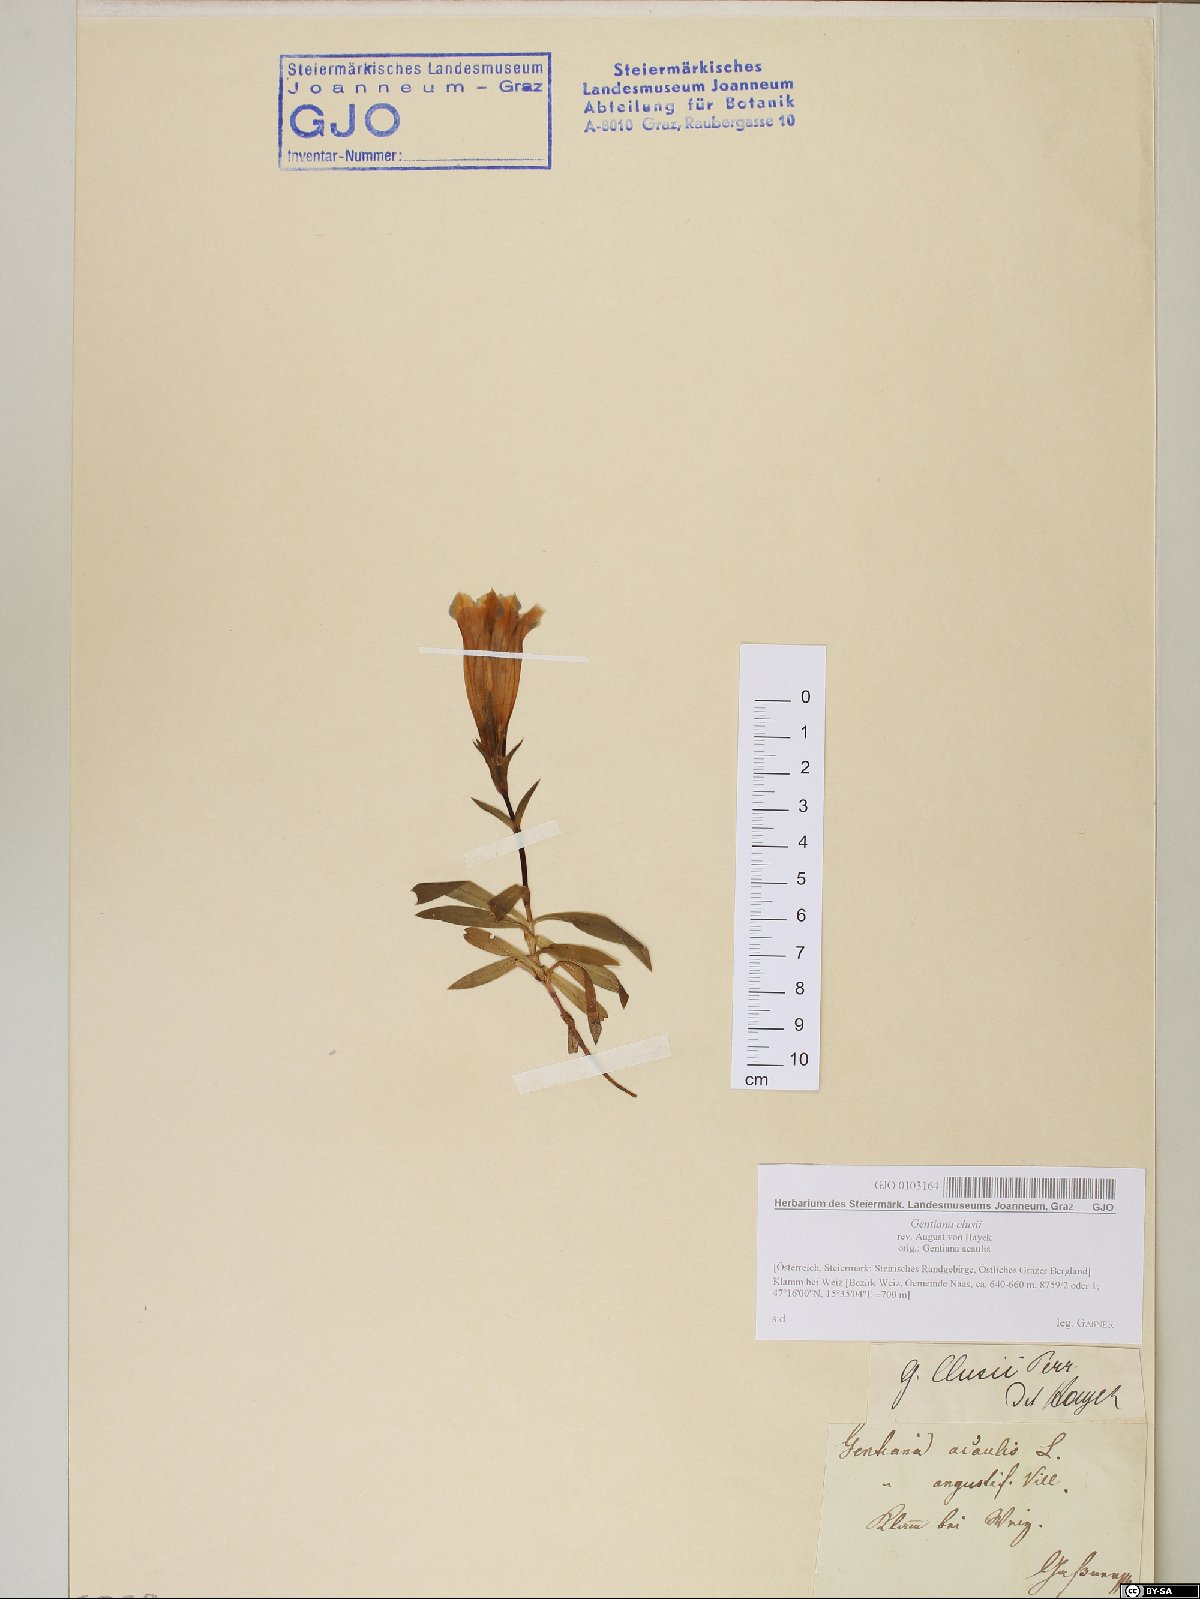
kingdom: Plantae
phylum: Tracheophyta
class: Magnoliopsida
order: Gentianales
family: Gentianaceae
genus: Gentiana
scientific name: Gentiana clusii
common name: Trumpet gentian
